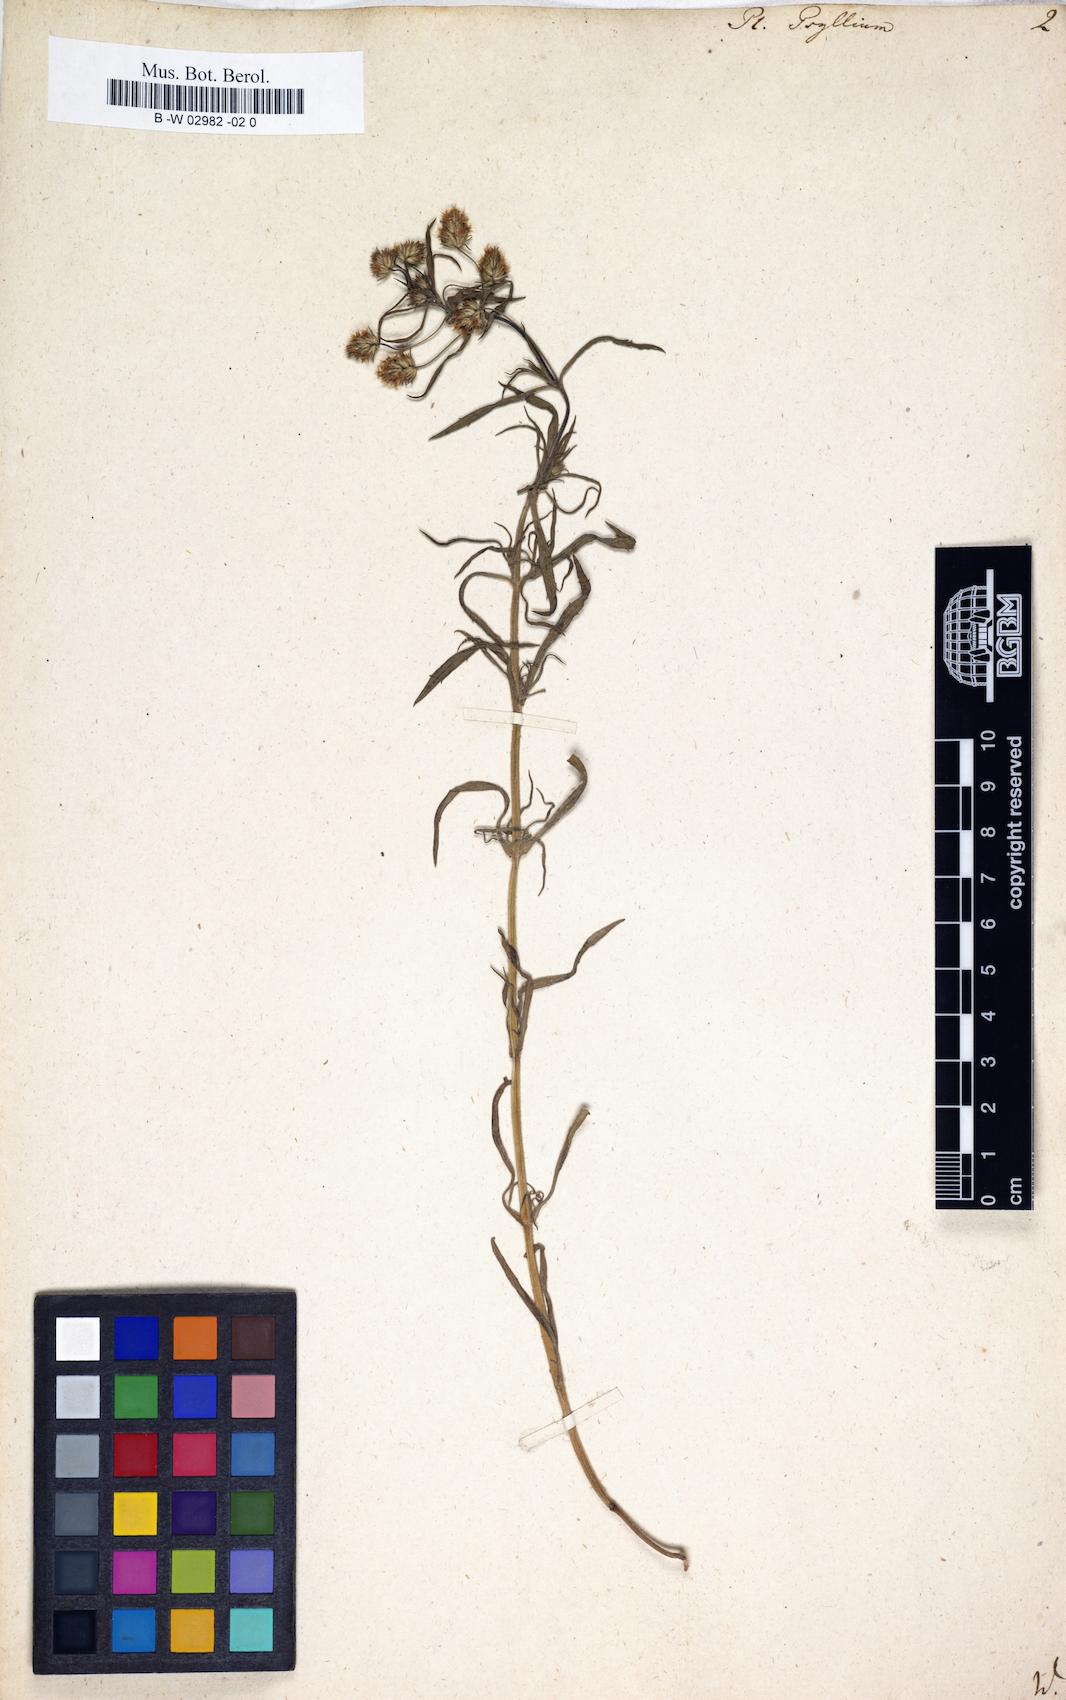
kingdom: Plantae
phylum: Tracheophyta
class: Magnoliopsida
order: Lamiales
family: Plantaginaceae
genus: Plantago
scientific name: Plantago psyllium
